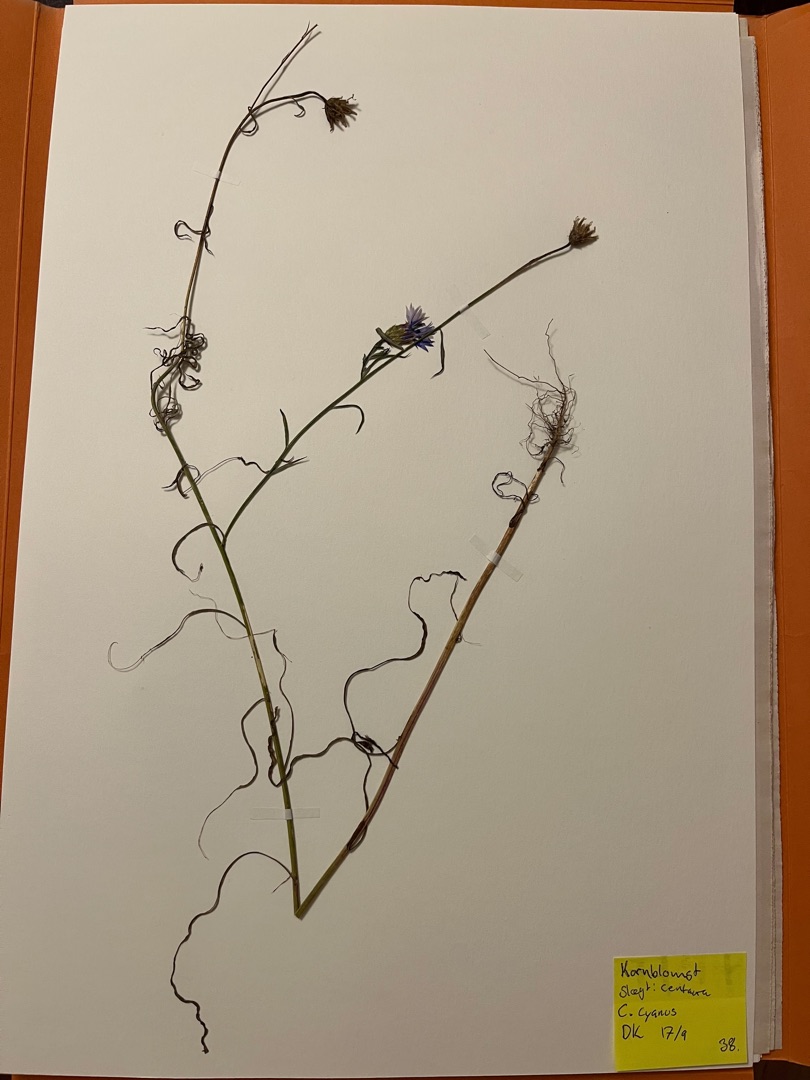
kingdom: Plantae
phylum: Tracheophyta
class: Magnoliopsida
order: Asterales
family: Asteraceae
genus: Centaurea
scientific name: Centaurea cyanus
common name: Kornblomst
